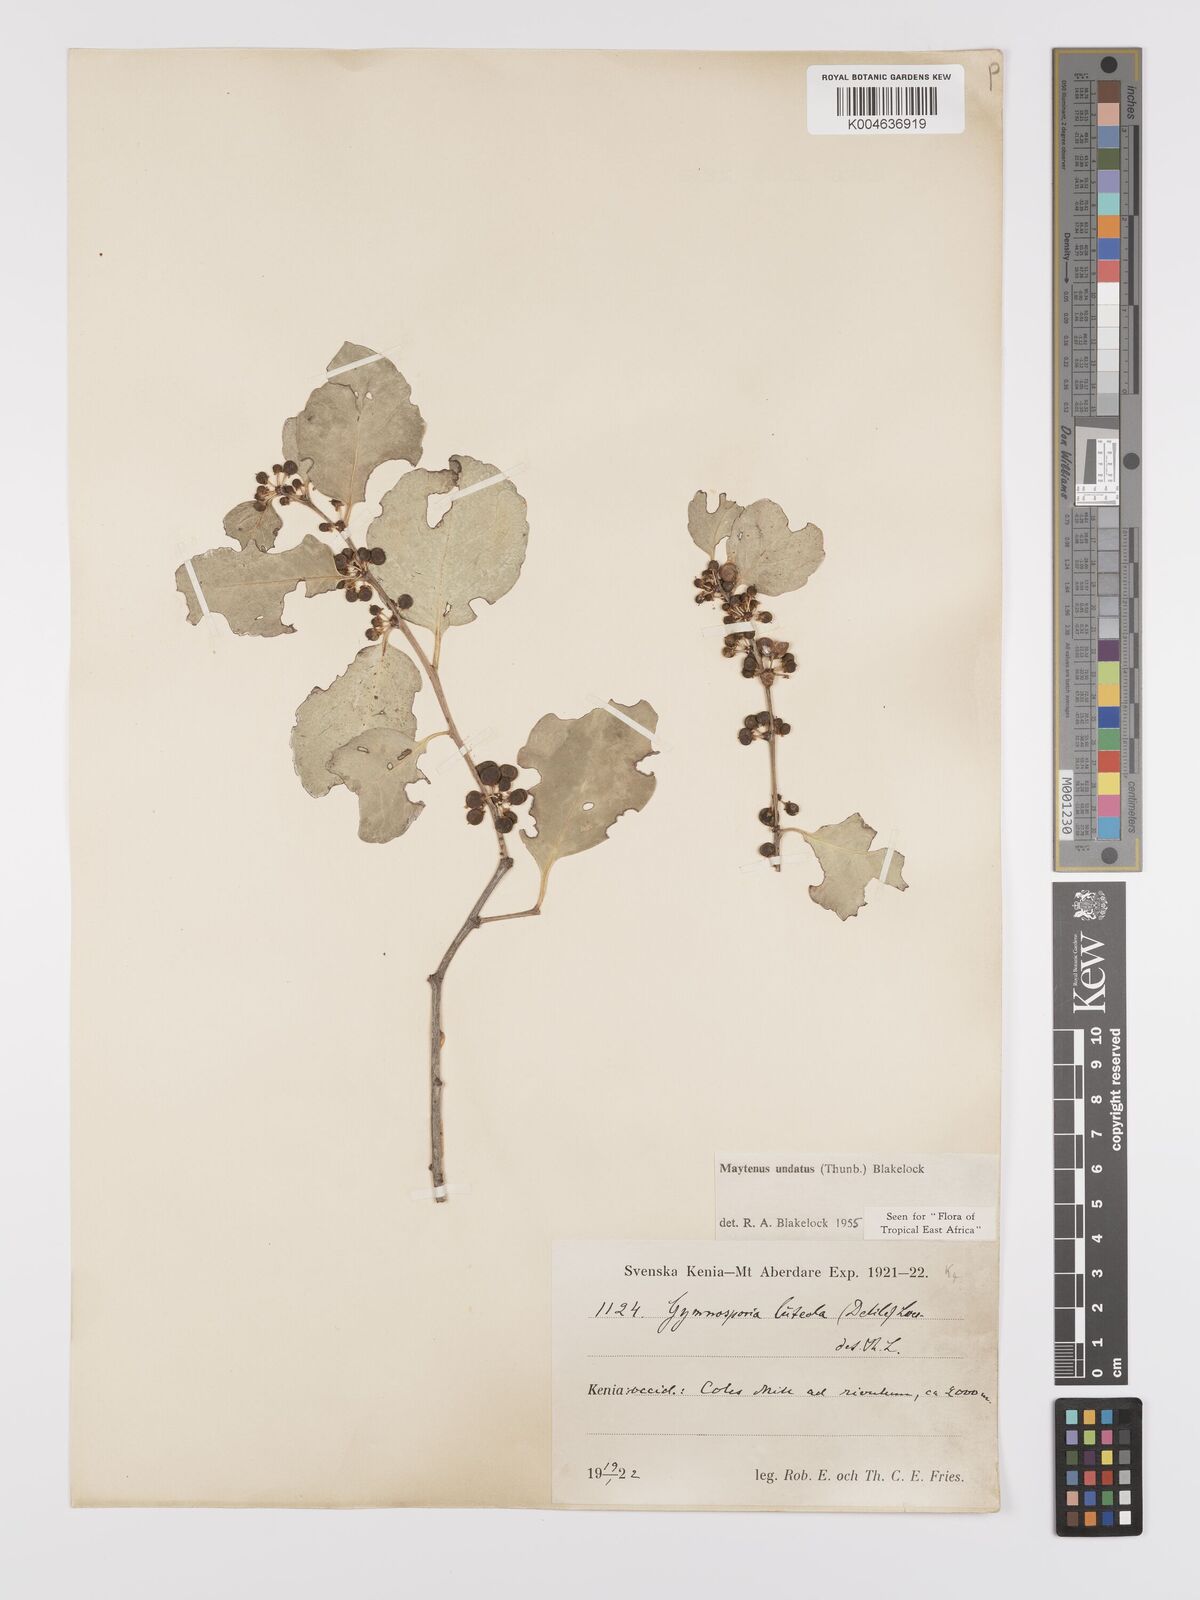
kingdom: Plantae
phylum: Tracheophyta
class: Magnoliopsida
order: Celastrales
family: Celastraceae
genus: Gymnosporia
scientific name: Gymnosporia undata
